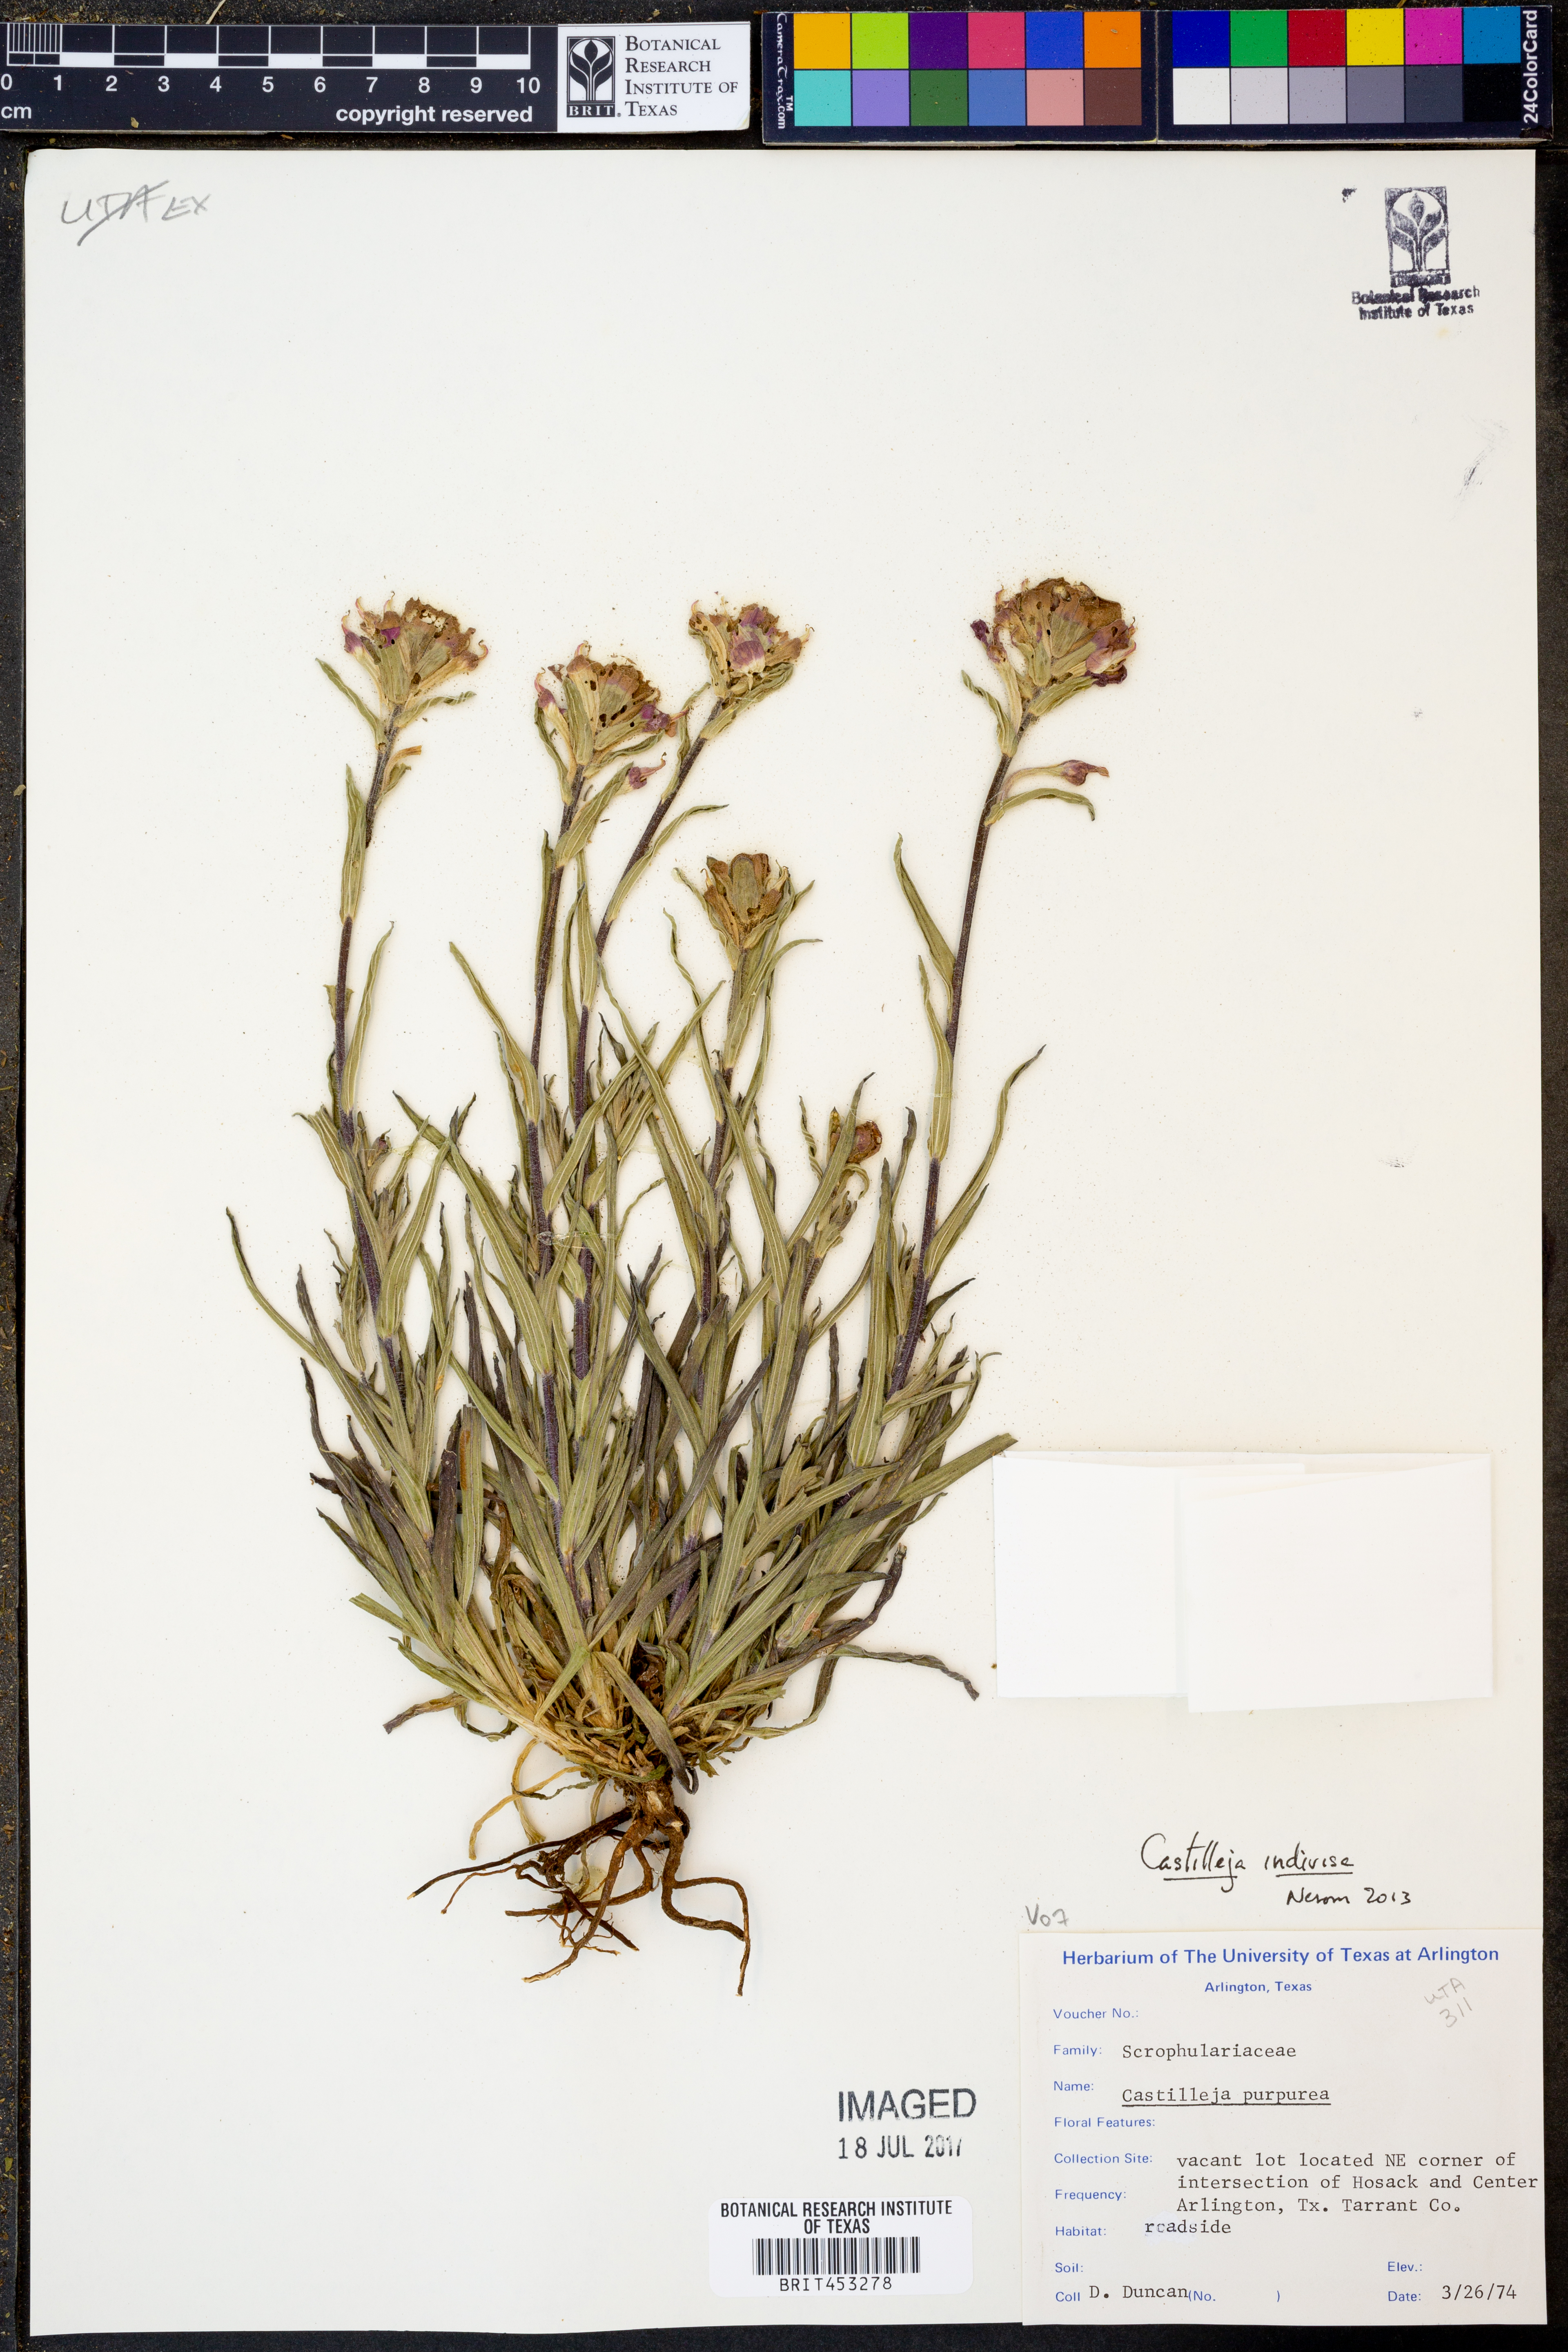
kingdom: Plantae
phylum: Tracheophyta
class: Magnoliopsida
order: Lamiales
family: Orobanchaceae
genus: Castilleja
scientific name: Castilleja indivisa
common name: Texas paintbrush
